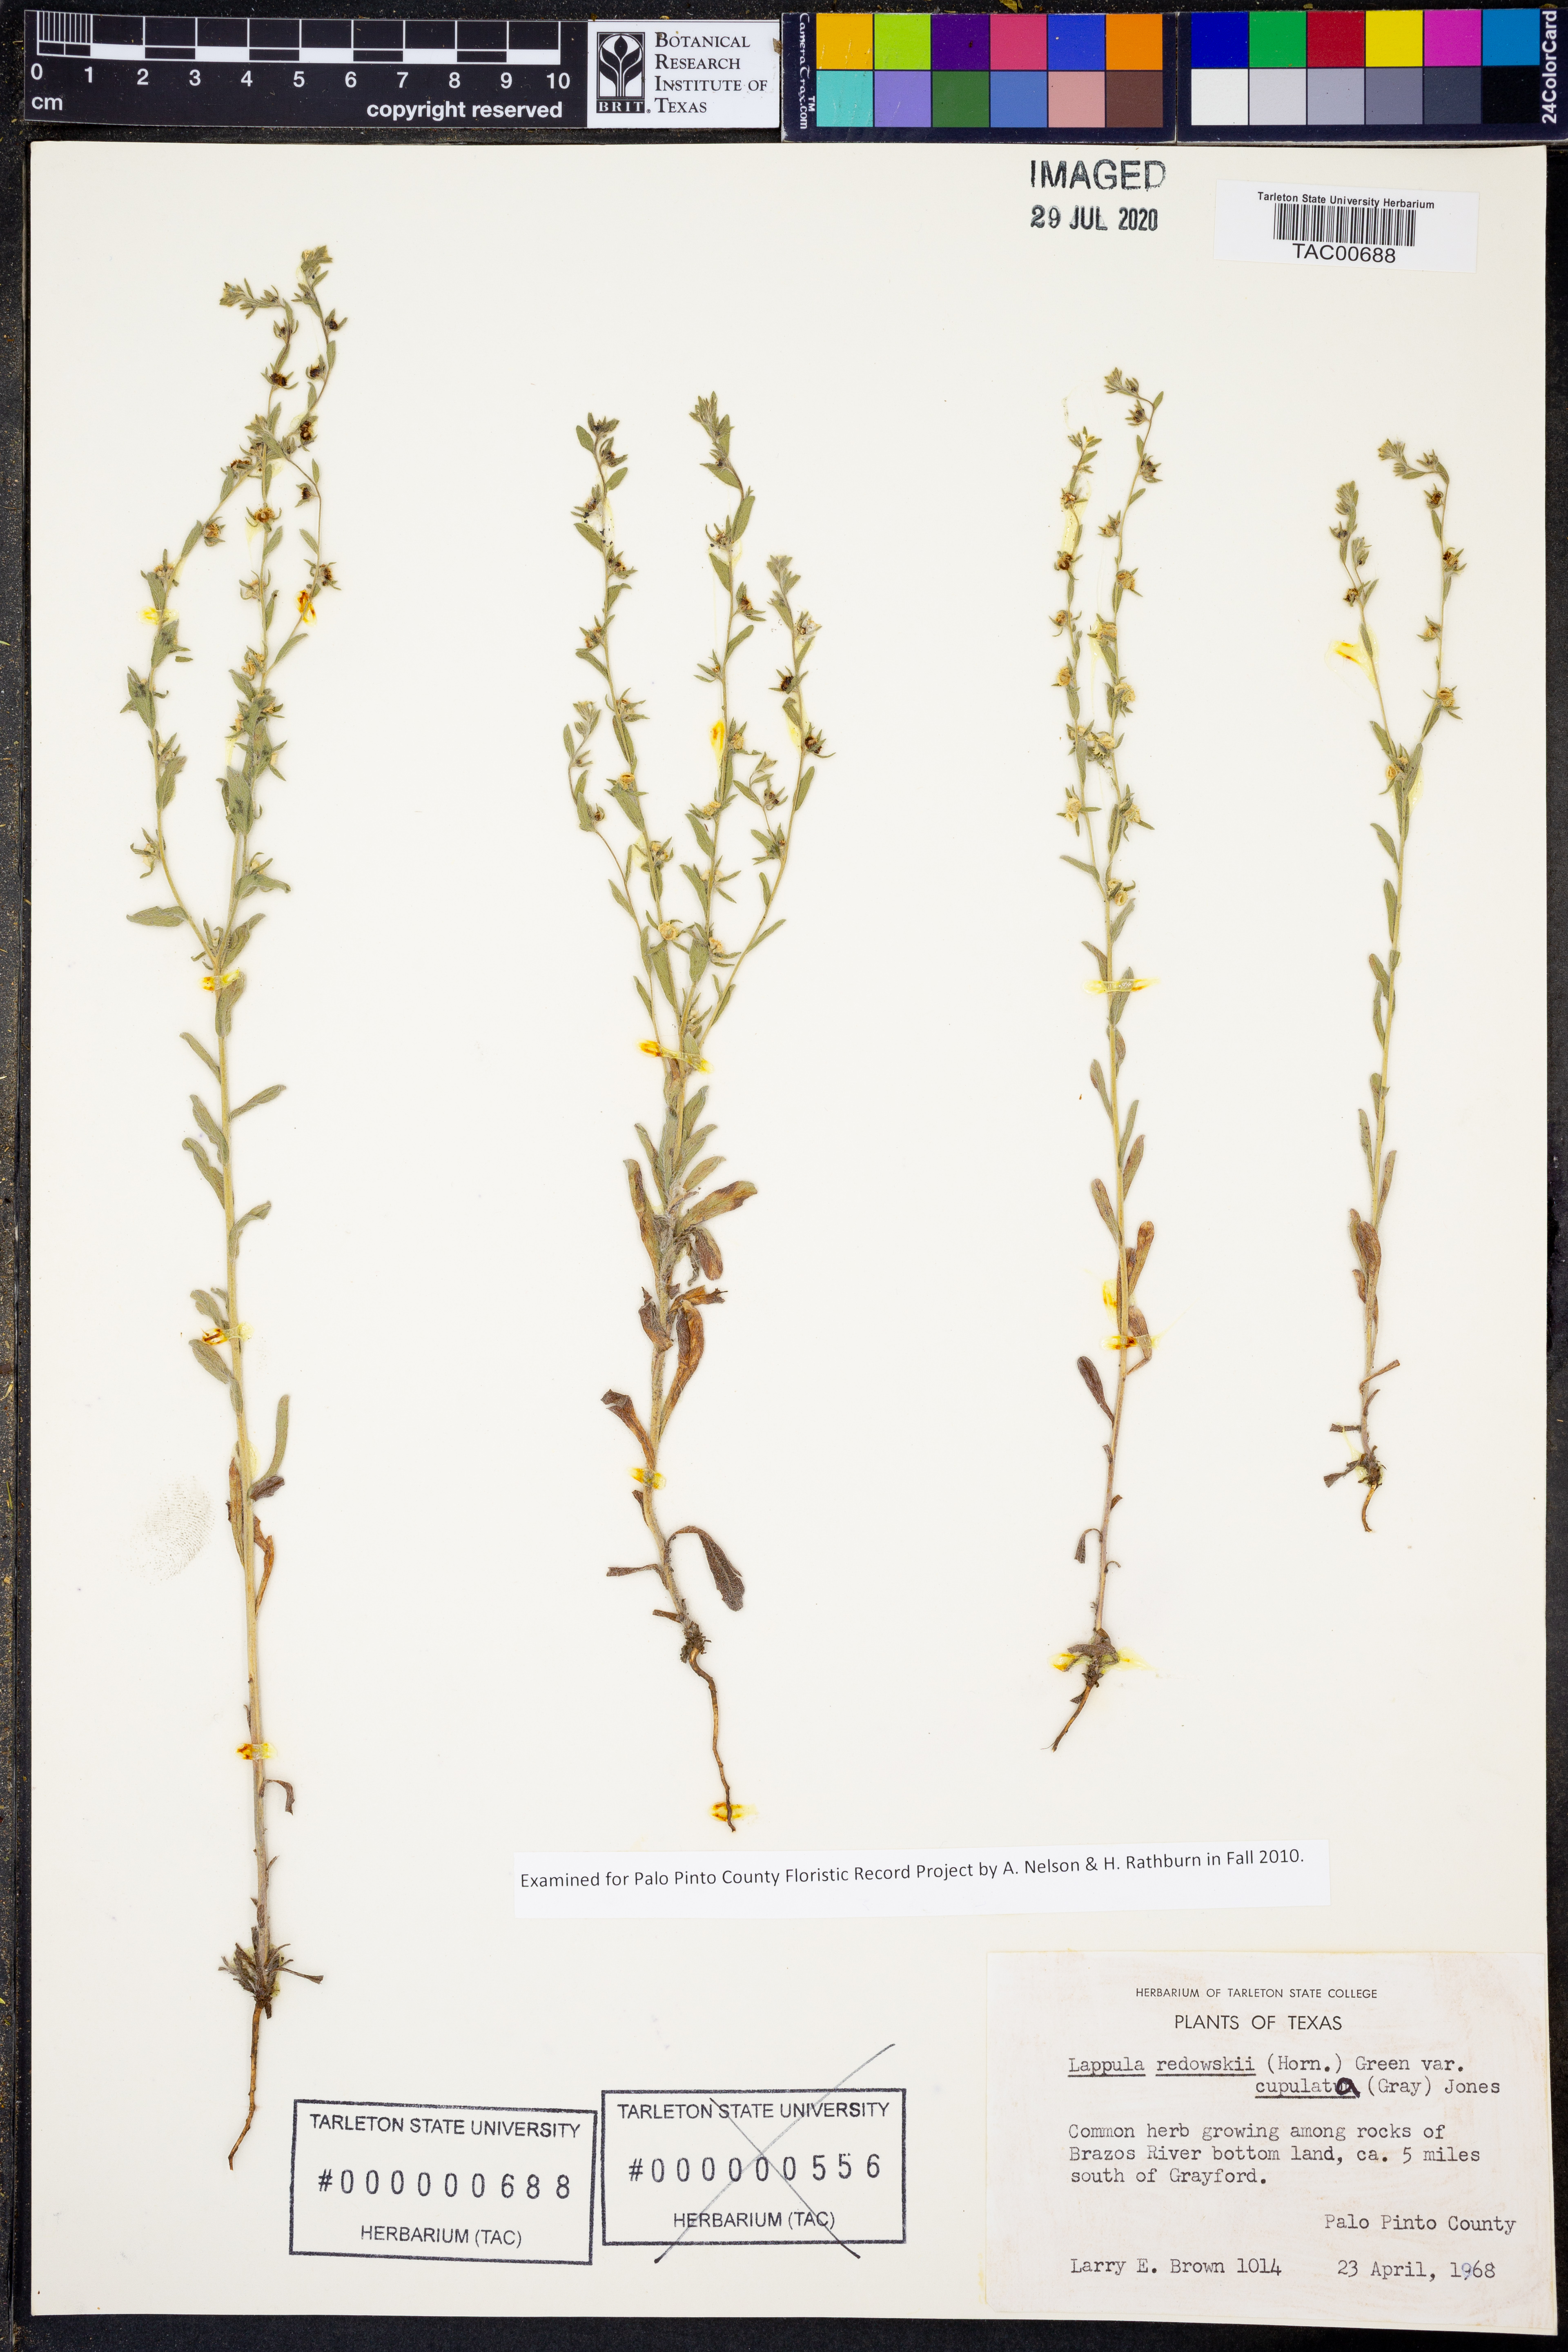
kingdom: Plantae
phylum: Tracheophyta
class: Magnoliopsida
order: Boraginales
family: Boraginaceae
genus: Lappula
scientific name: Lappula occidentalis
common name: Western stickseed
